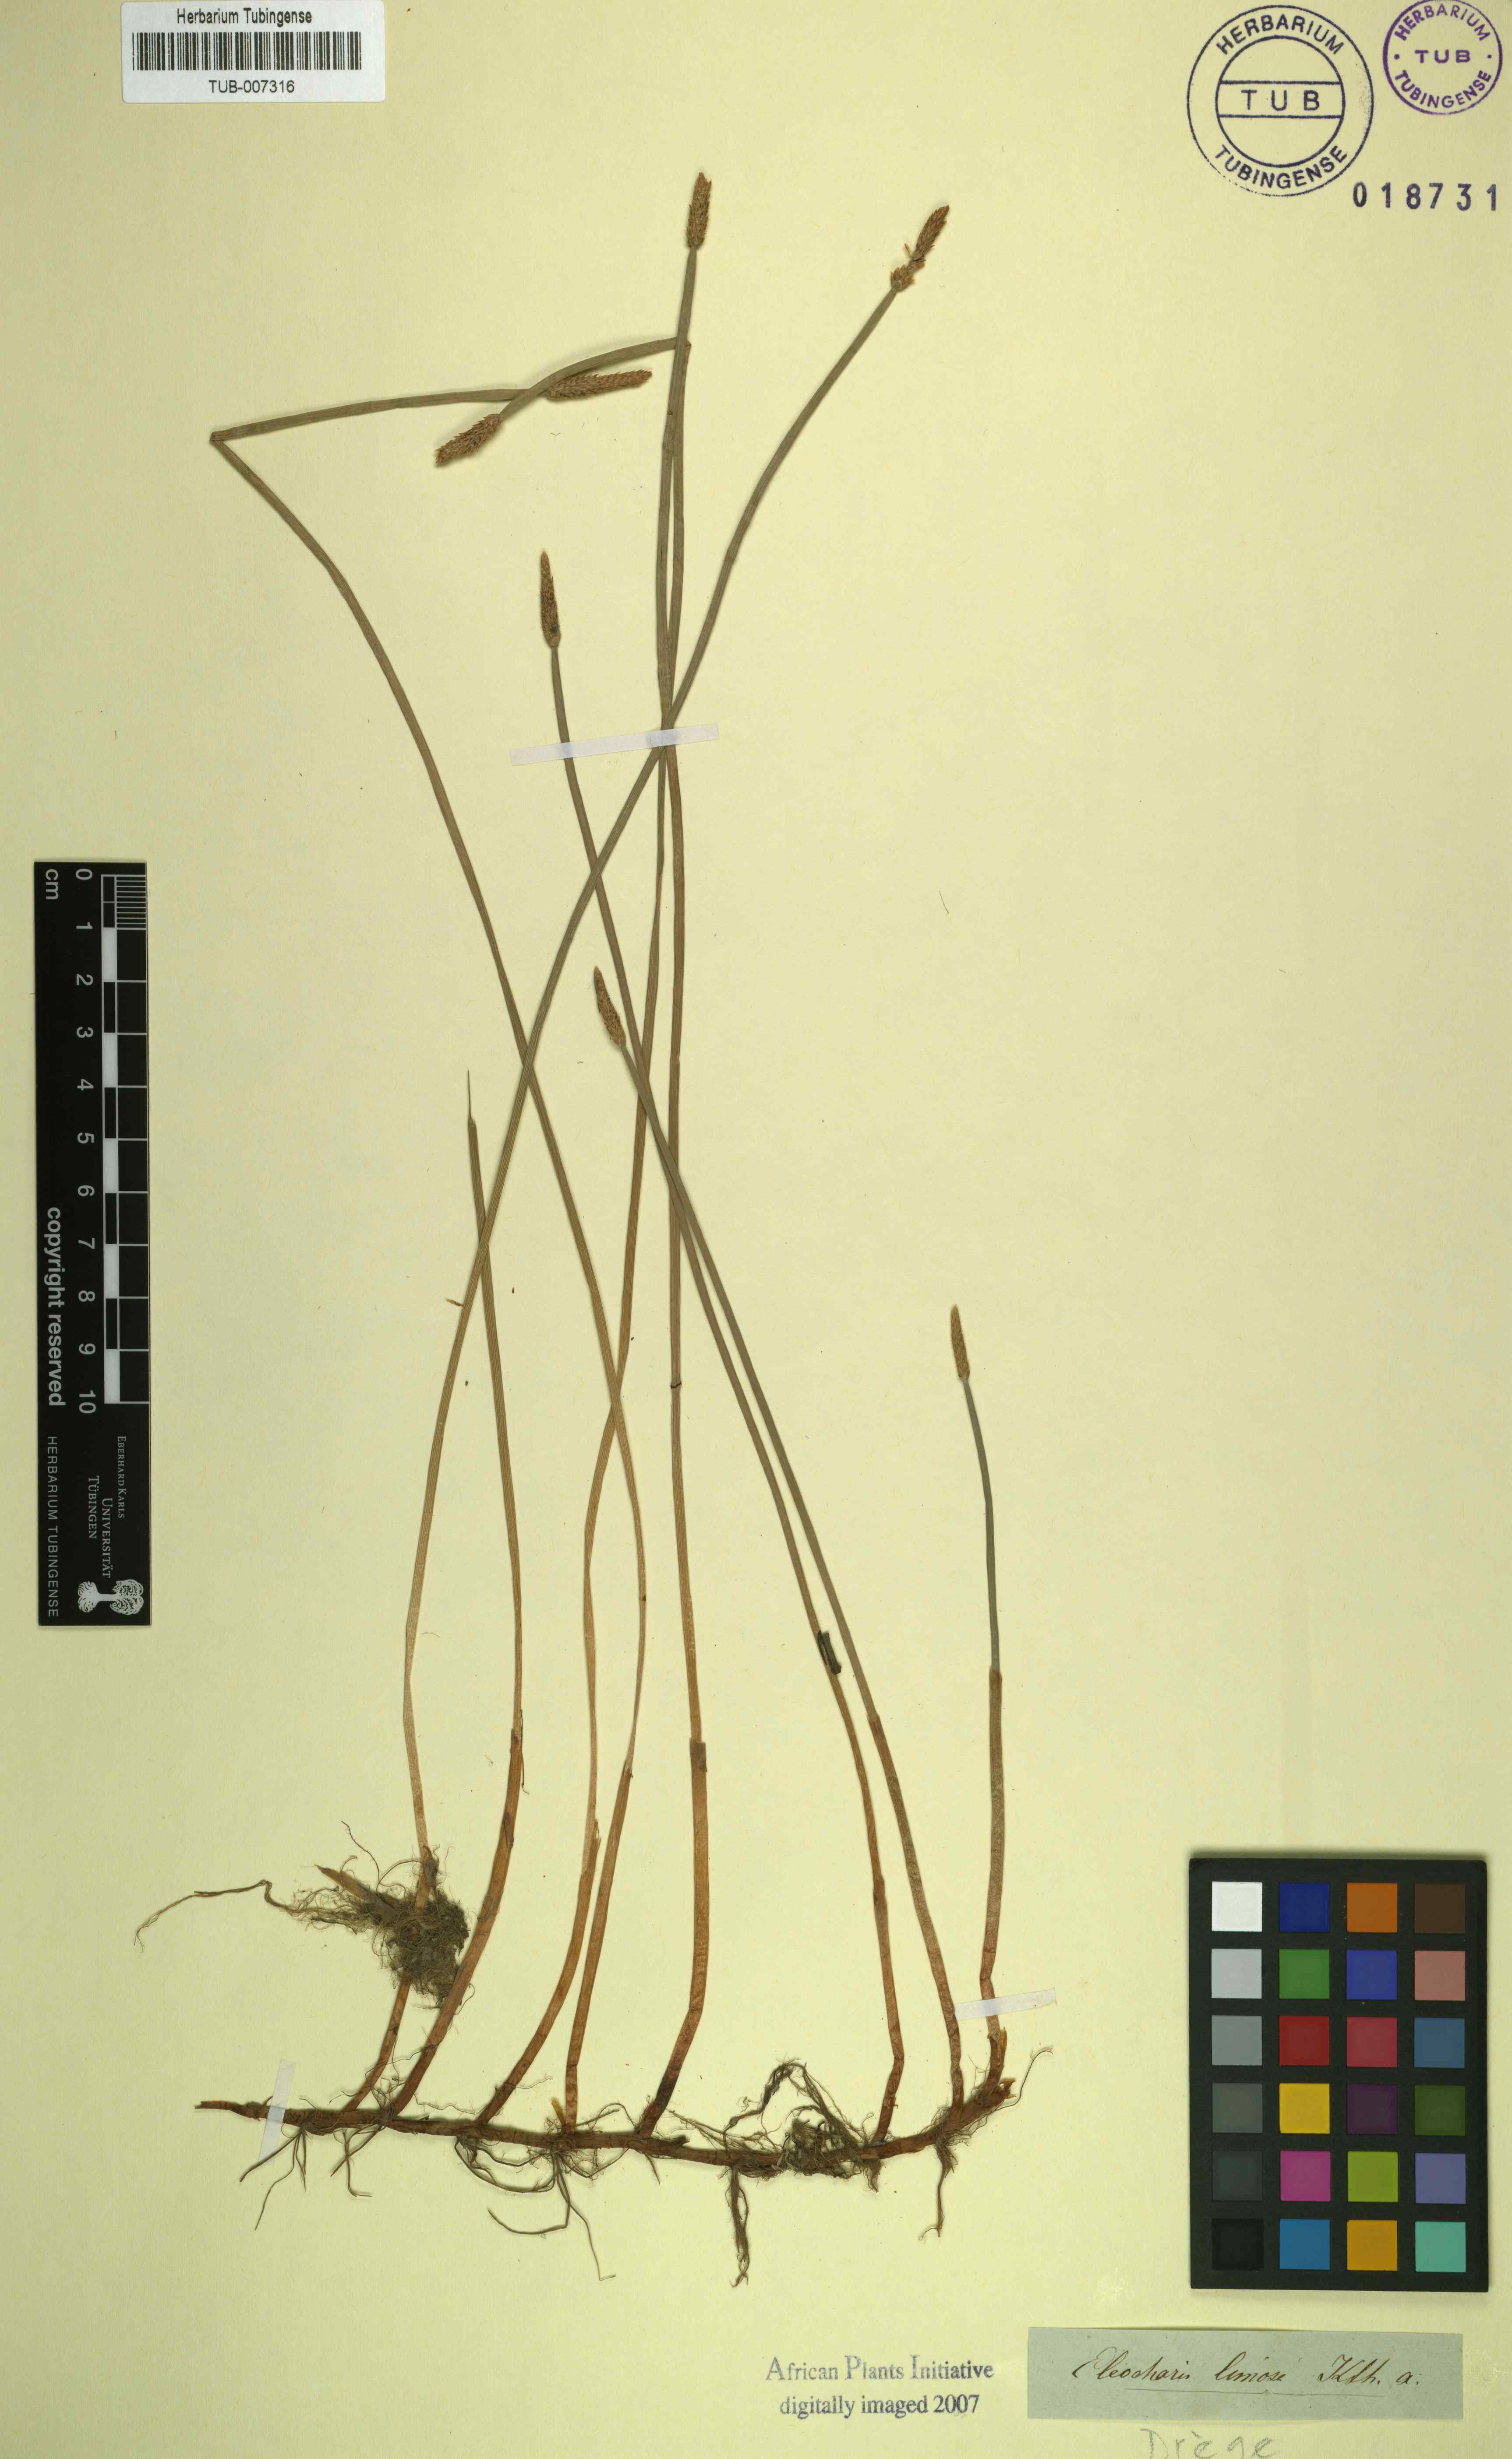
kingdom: Plantae
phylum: Tracheophyta
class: Liliopsida
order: Poales
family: Cyperaceae
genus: Eleocharis
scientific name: Eleocharis limosa
